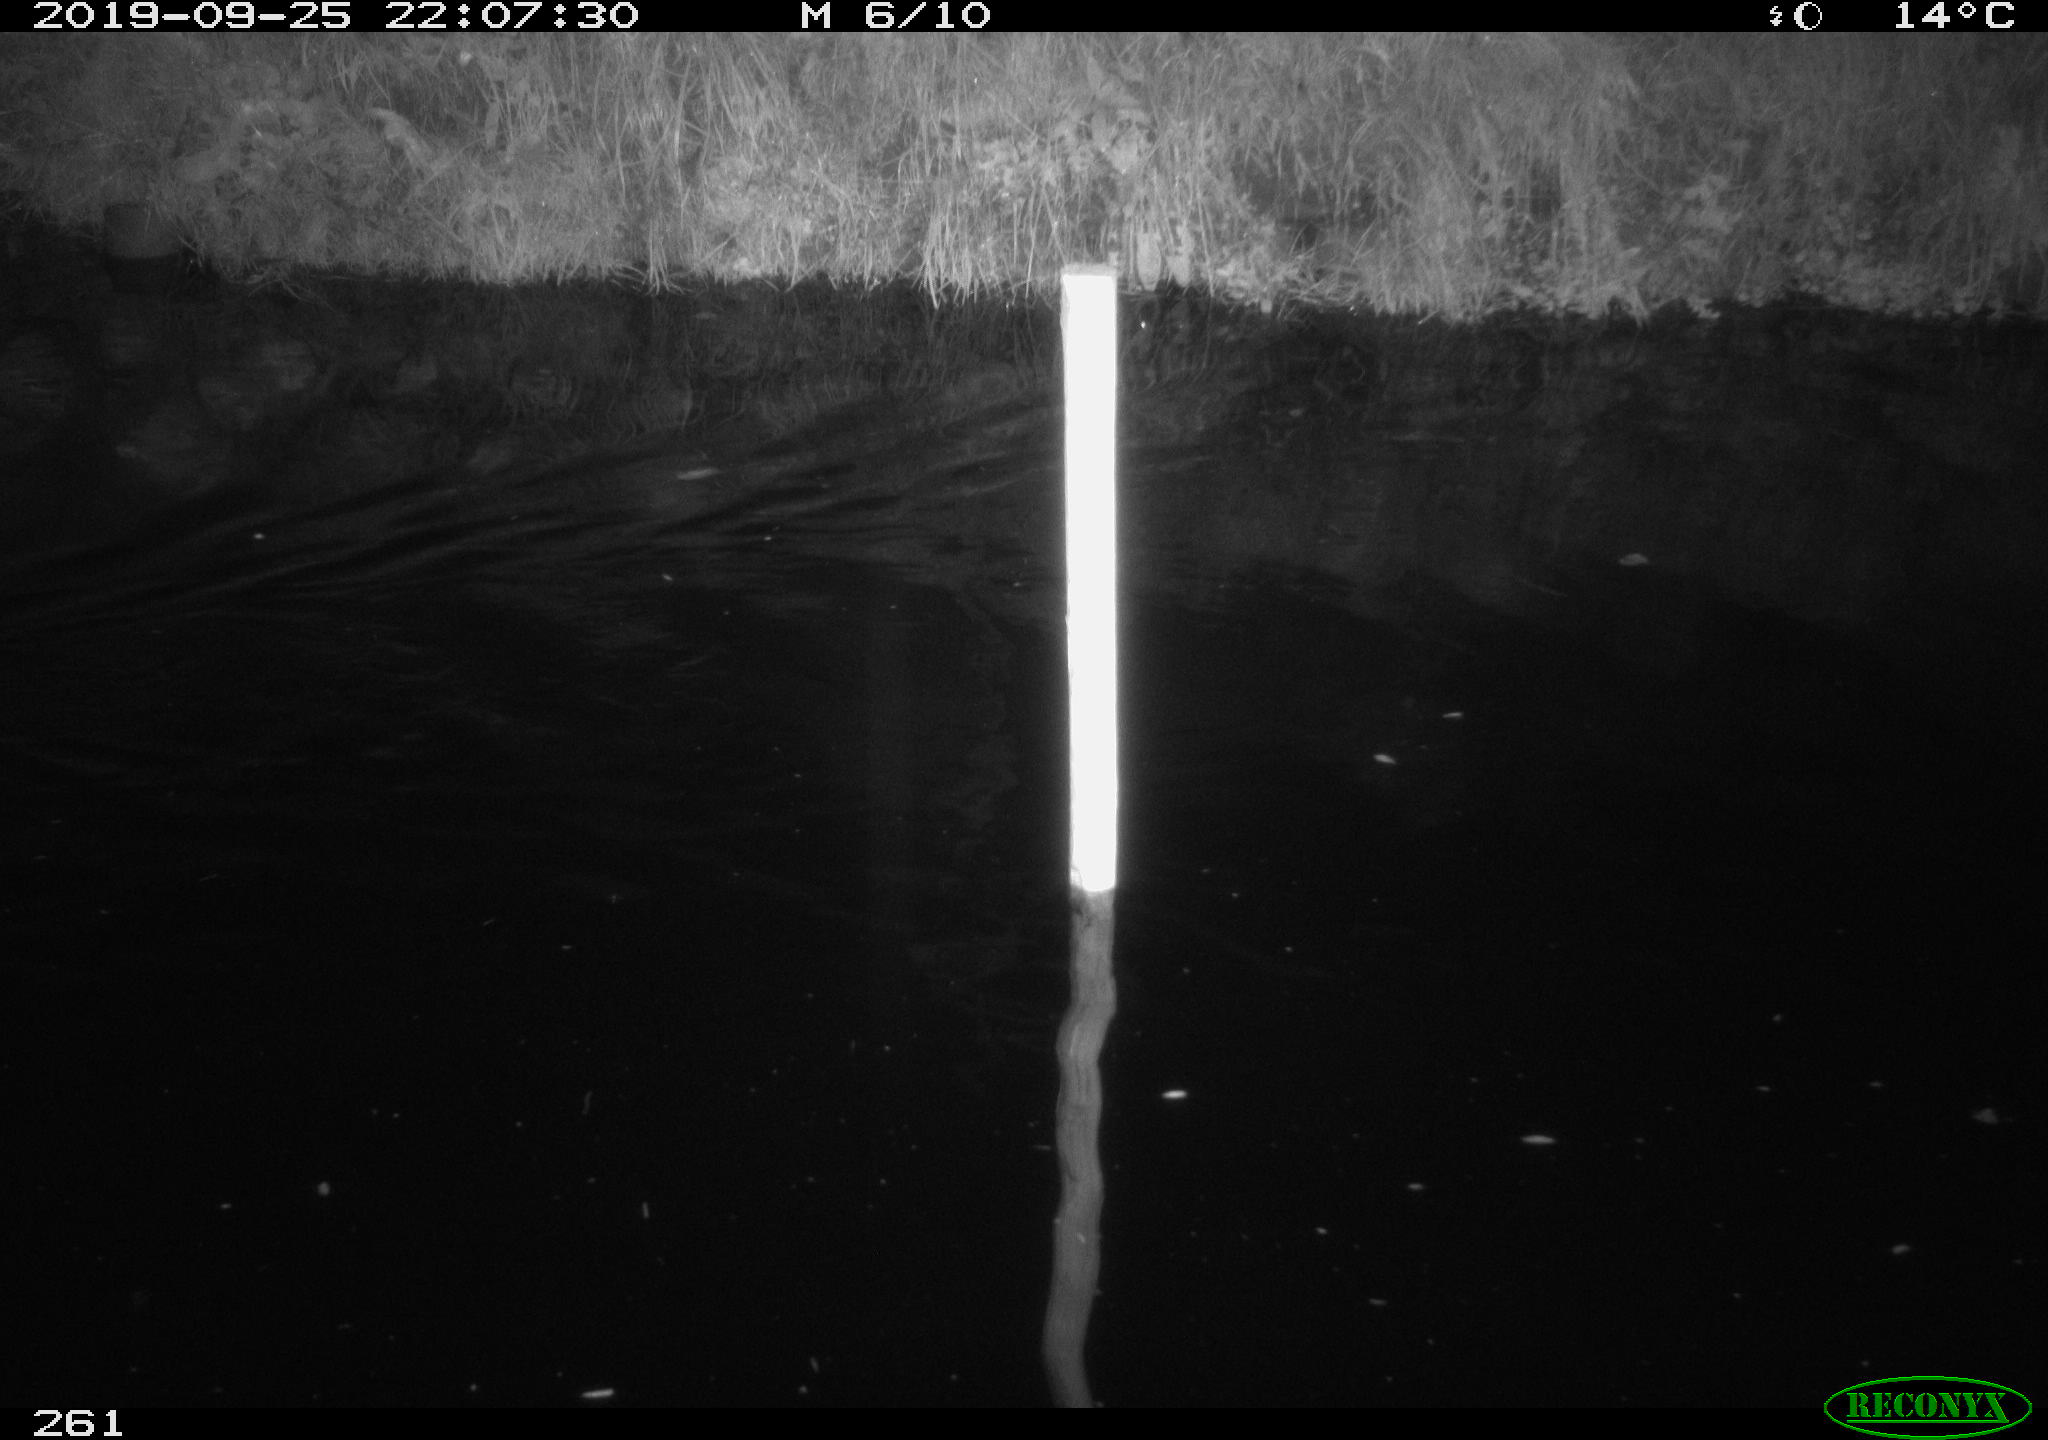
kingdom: Animalia
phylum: Chordata
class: Aves
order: Anseriformes
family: Anatidae
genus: Anas
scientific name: Anas platyrhynchos
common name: Mallard
